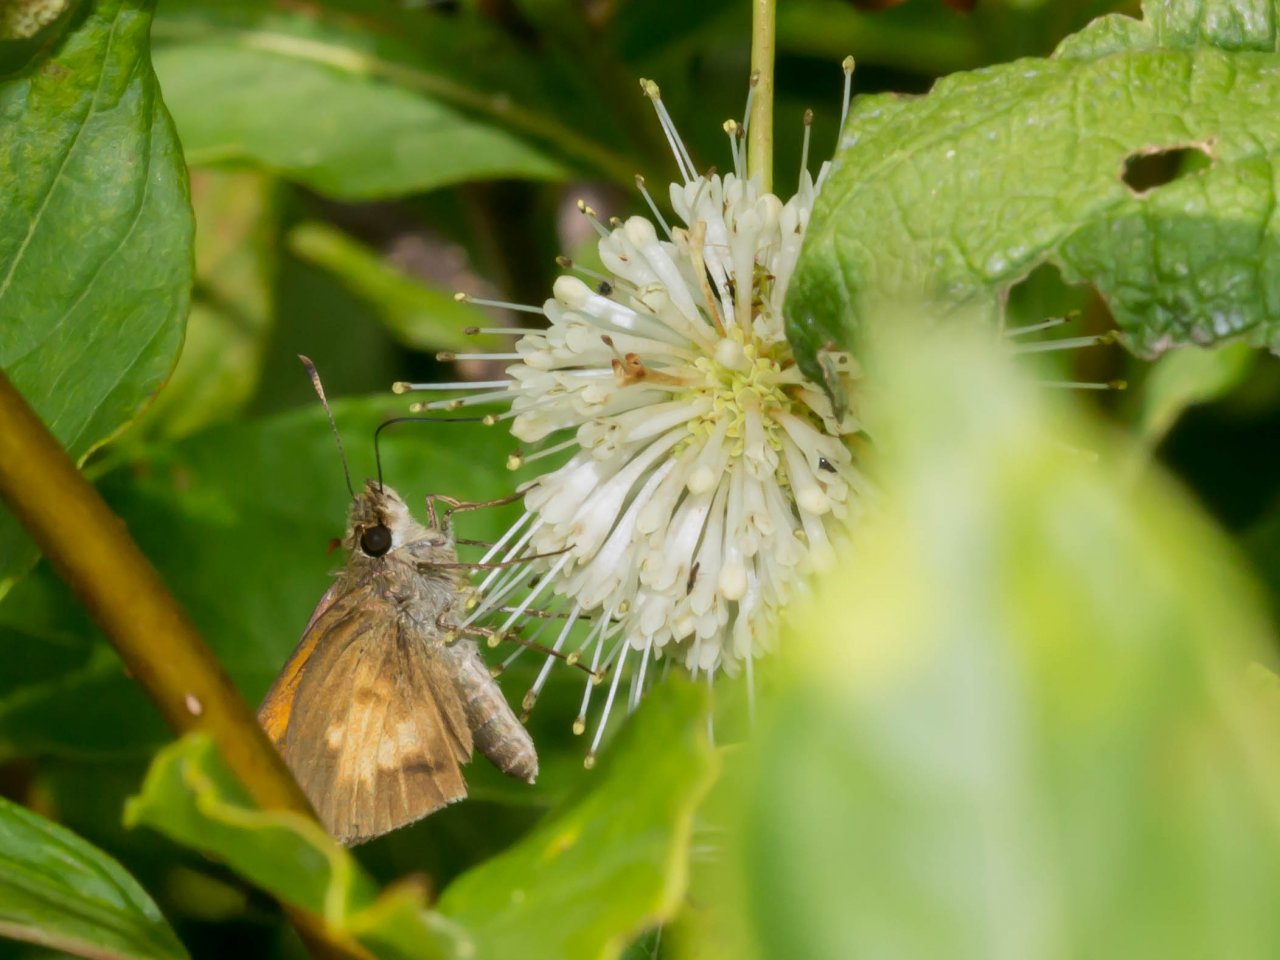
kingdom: Animalia
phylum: Arthropoda
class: Insecta
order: Lepidoptera
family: Hesperiidae
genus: Poanes
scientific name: Poanes viator
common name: Broad-winged Skipper
